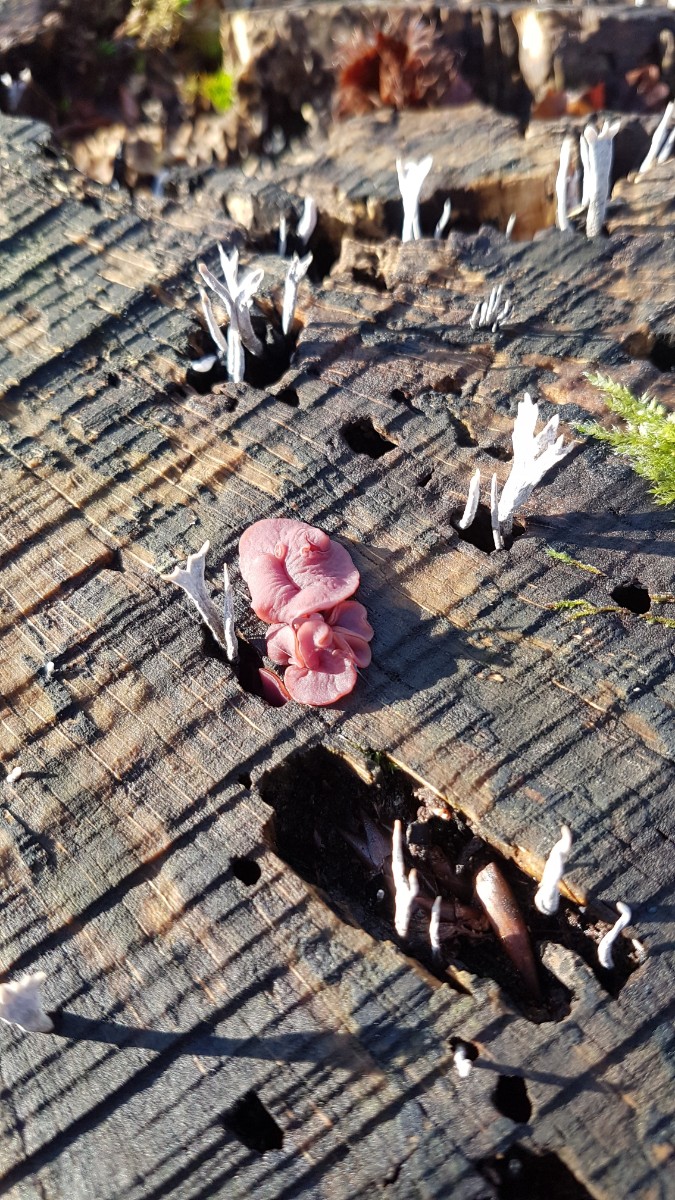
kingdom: Fungi
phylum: Ascomycota
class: Leotiomycetes
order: Helotiales
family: Gelatinodiscaceae
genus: Ascocoryne
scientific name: Ascocoryne cylichnium
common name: stor sejskive
